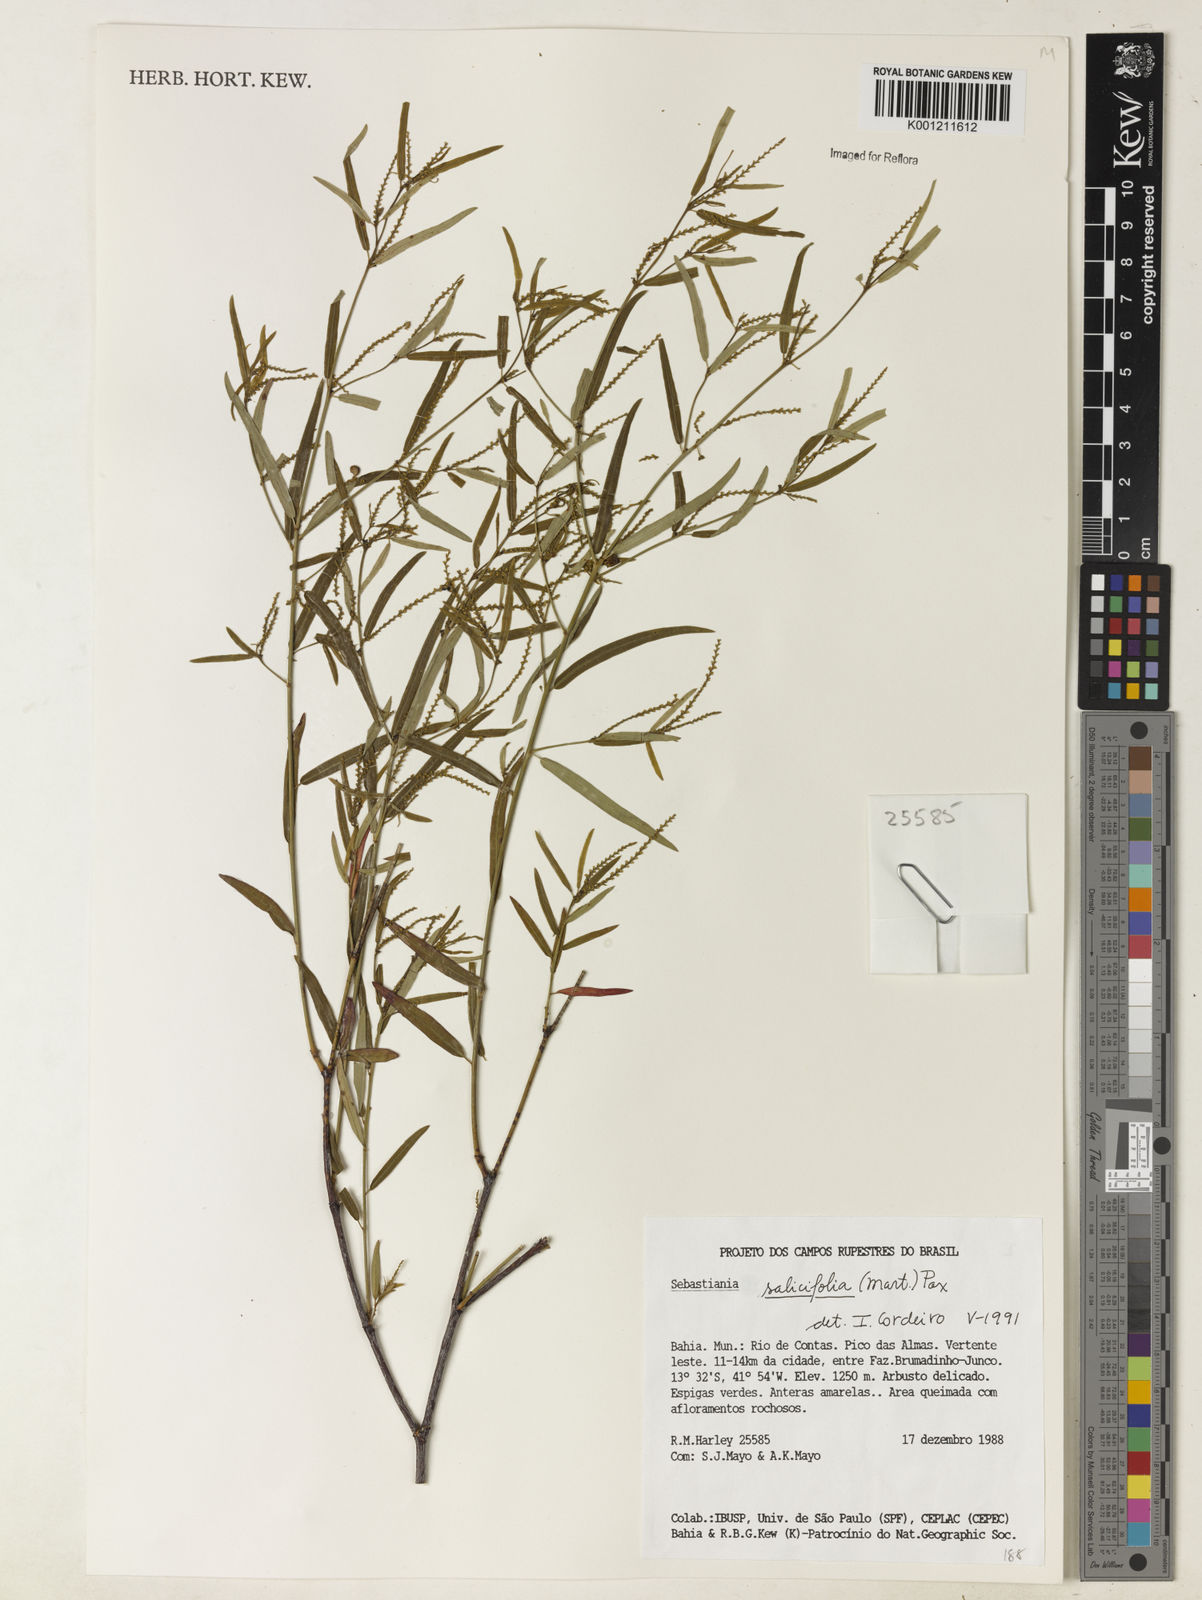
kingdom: Plantae
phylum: Tracheophyta
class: Magnoliopsida
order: Malpighiales
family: Euphorbiaceae
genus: Microstachys
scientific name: Microstachys
